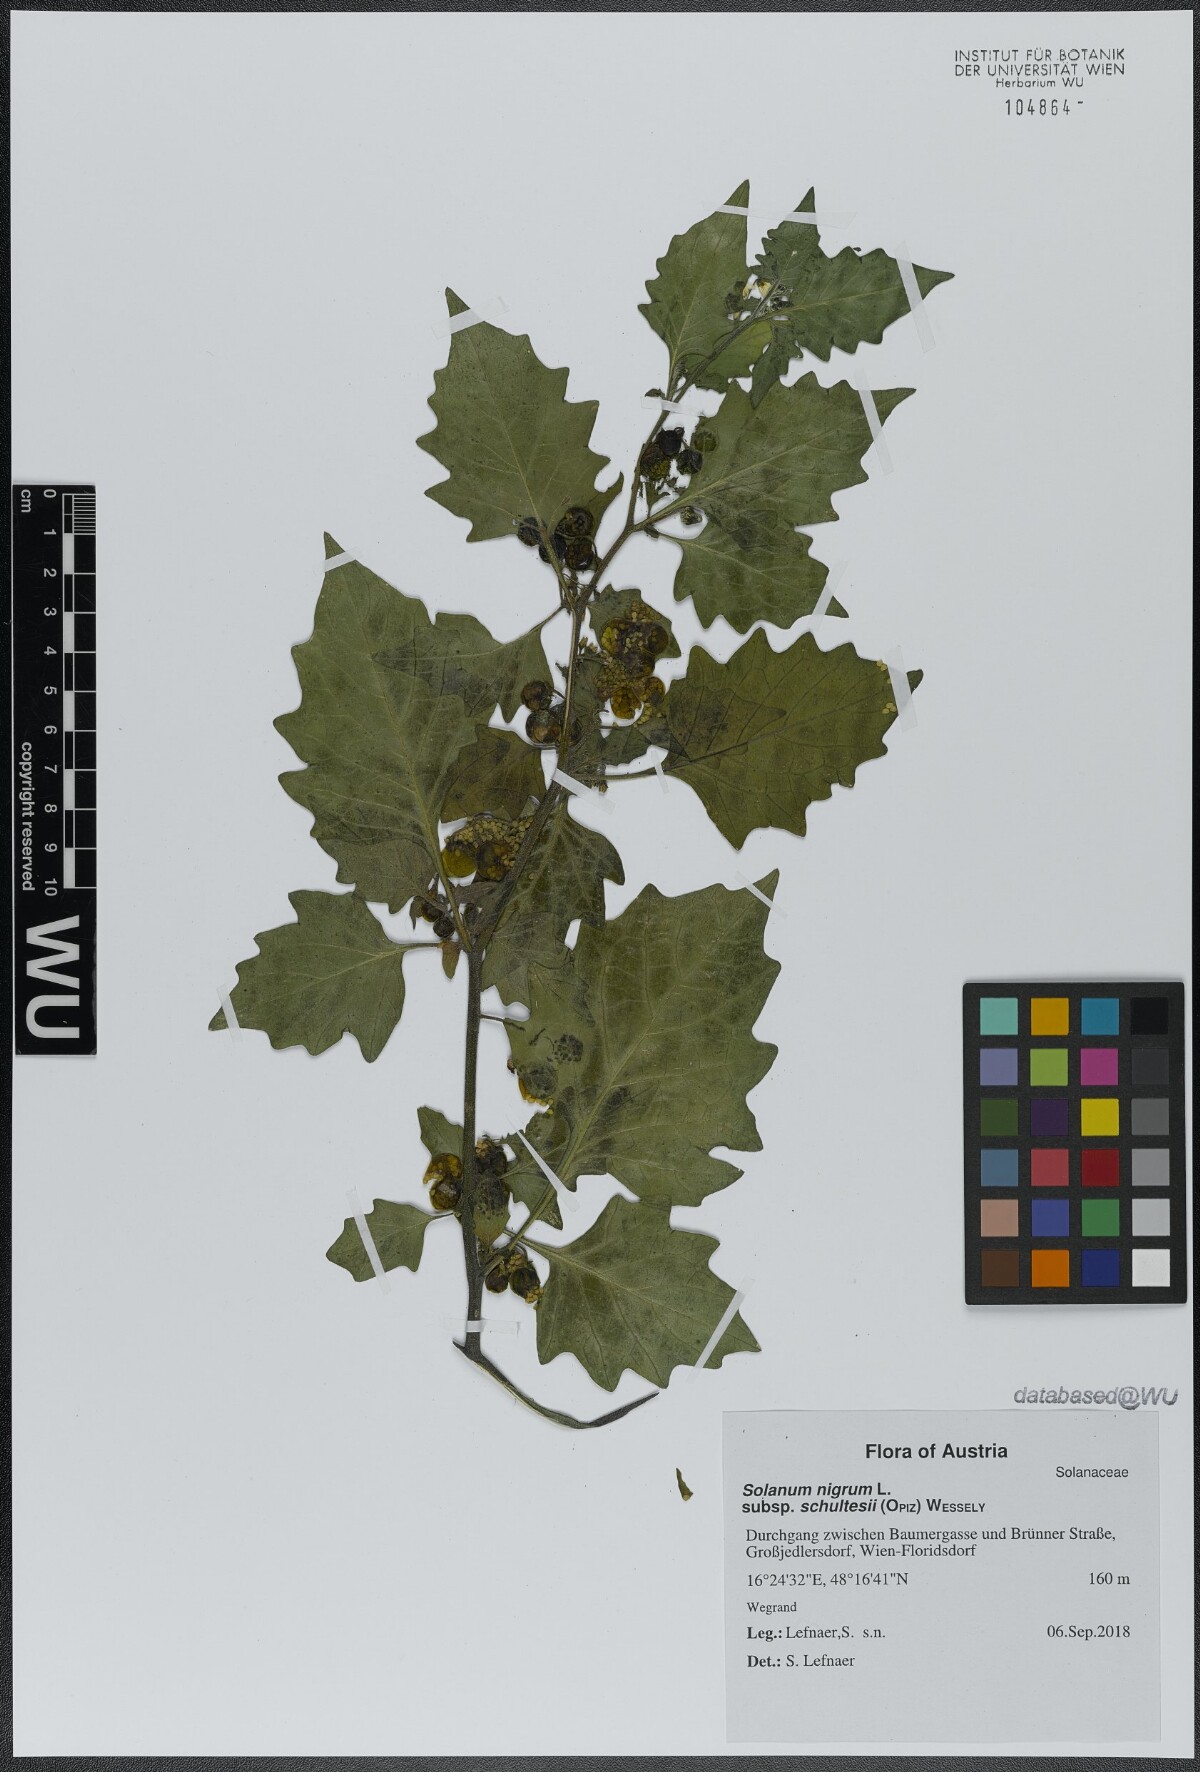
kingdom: Plantae
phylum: Tracheophyta
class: Magnoliopsida
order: Solanales
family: Solanaceae
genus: Solanum
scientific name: Solanum decipiens
